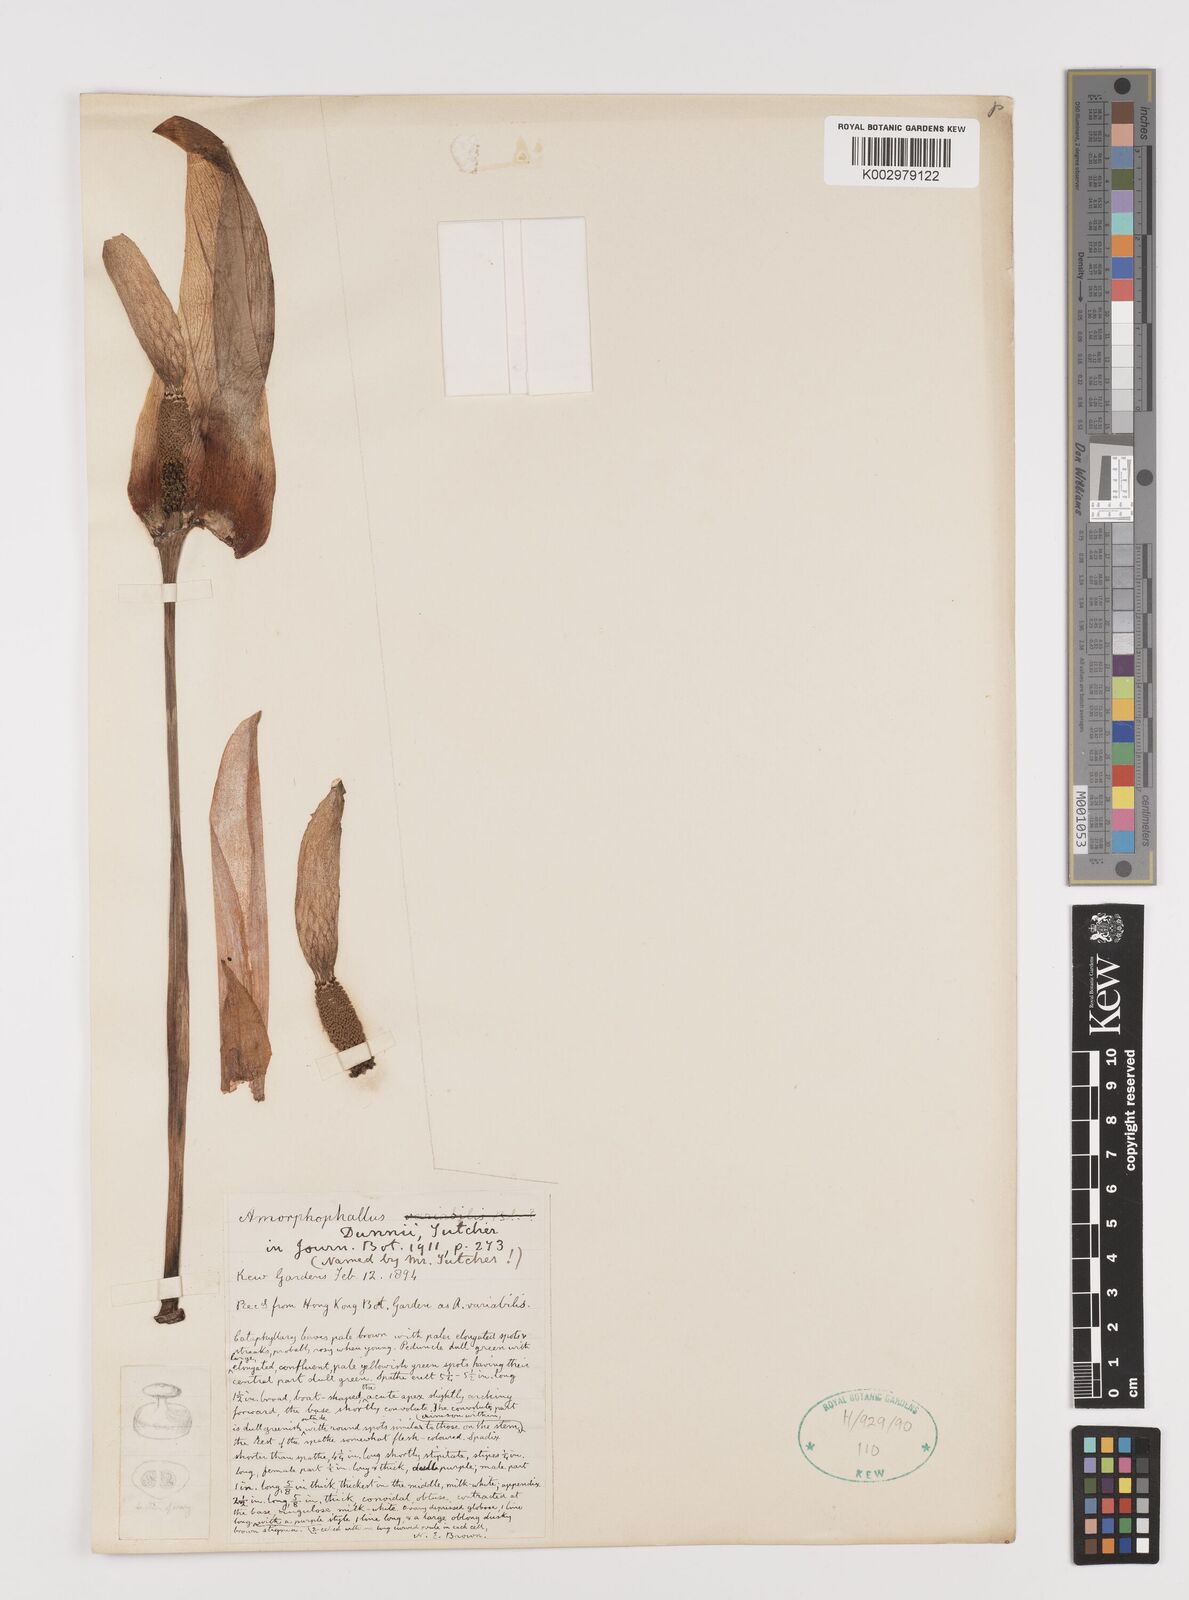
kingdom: Plantae
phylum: Tracheophyta
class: Liliopsida
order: Alismatales
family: Araceae
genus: Amorphophallus
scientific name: Amorphophallus dunnii
